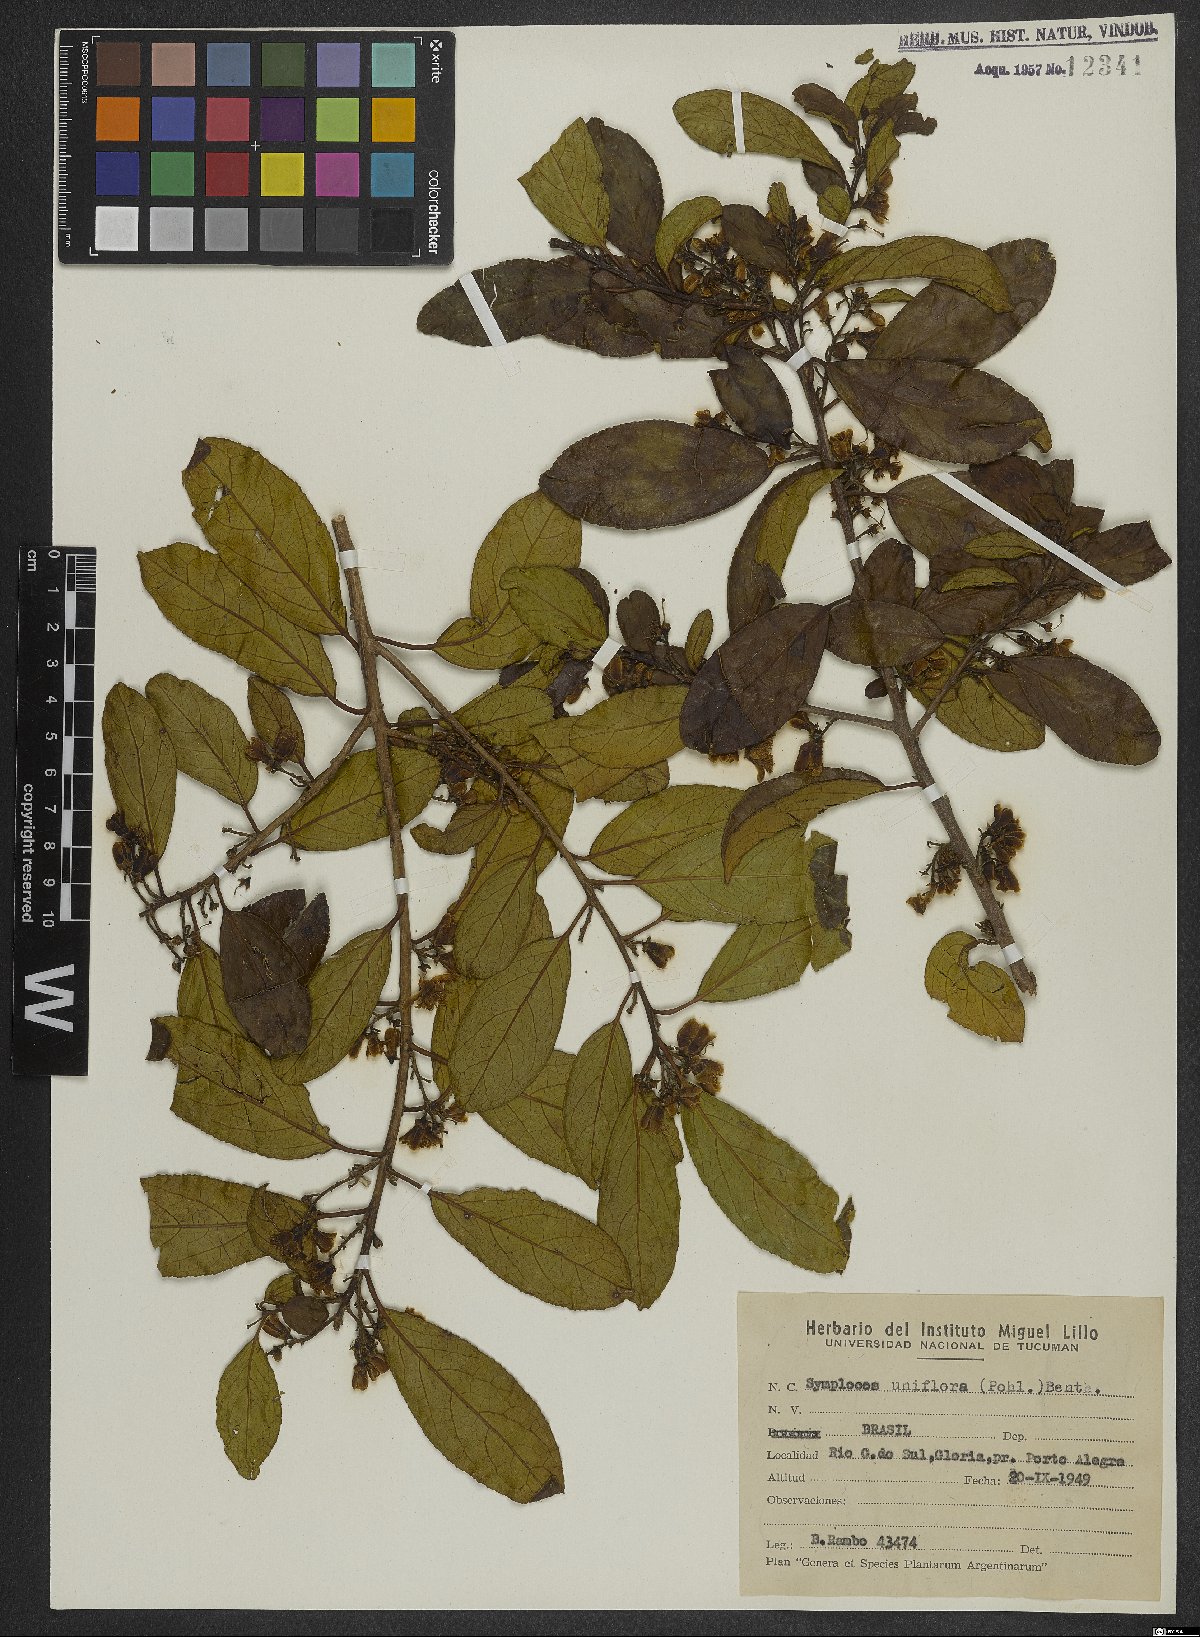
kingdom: Plantae
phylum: Tracheophyta
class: Magnoliopsida
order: Ericales
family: Symplocaceae
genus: Symplocos
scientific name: Symplocos uniflora
